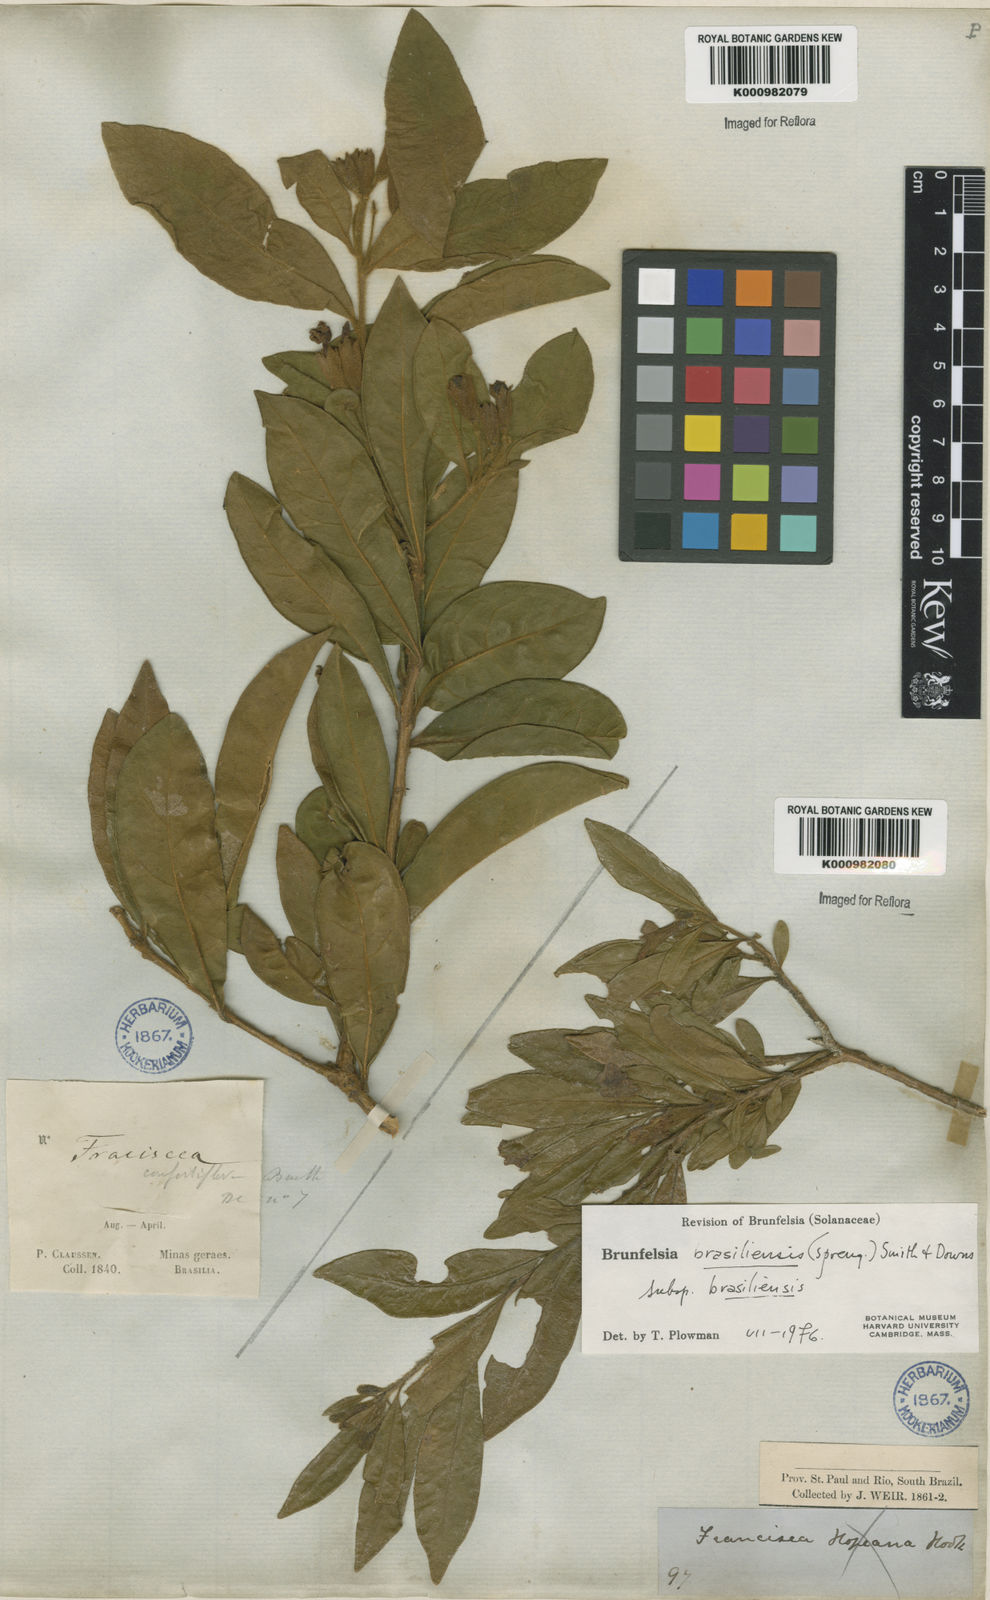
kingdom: Plantae
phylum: Tracheophyta
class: Magnoliopsida
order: Solanales
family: Solanaceae
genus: Brunfelsia
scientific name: Brunfelsia brasiliensis
